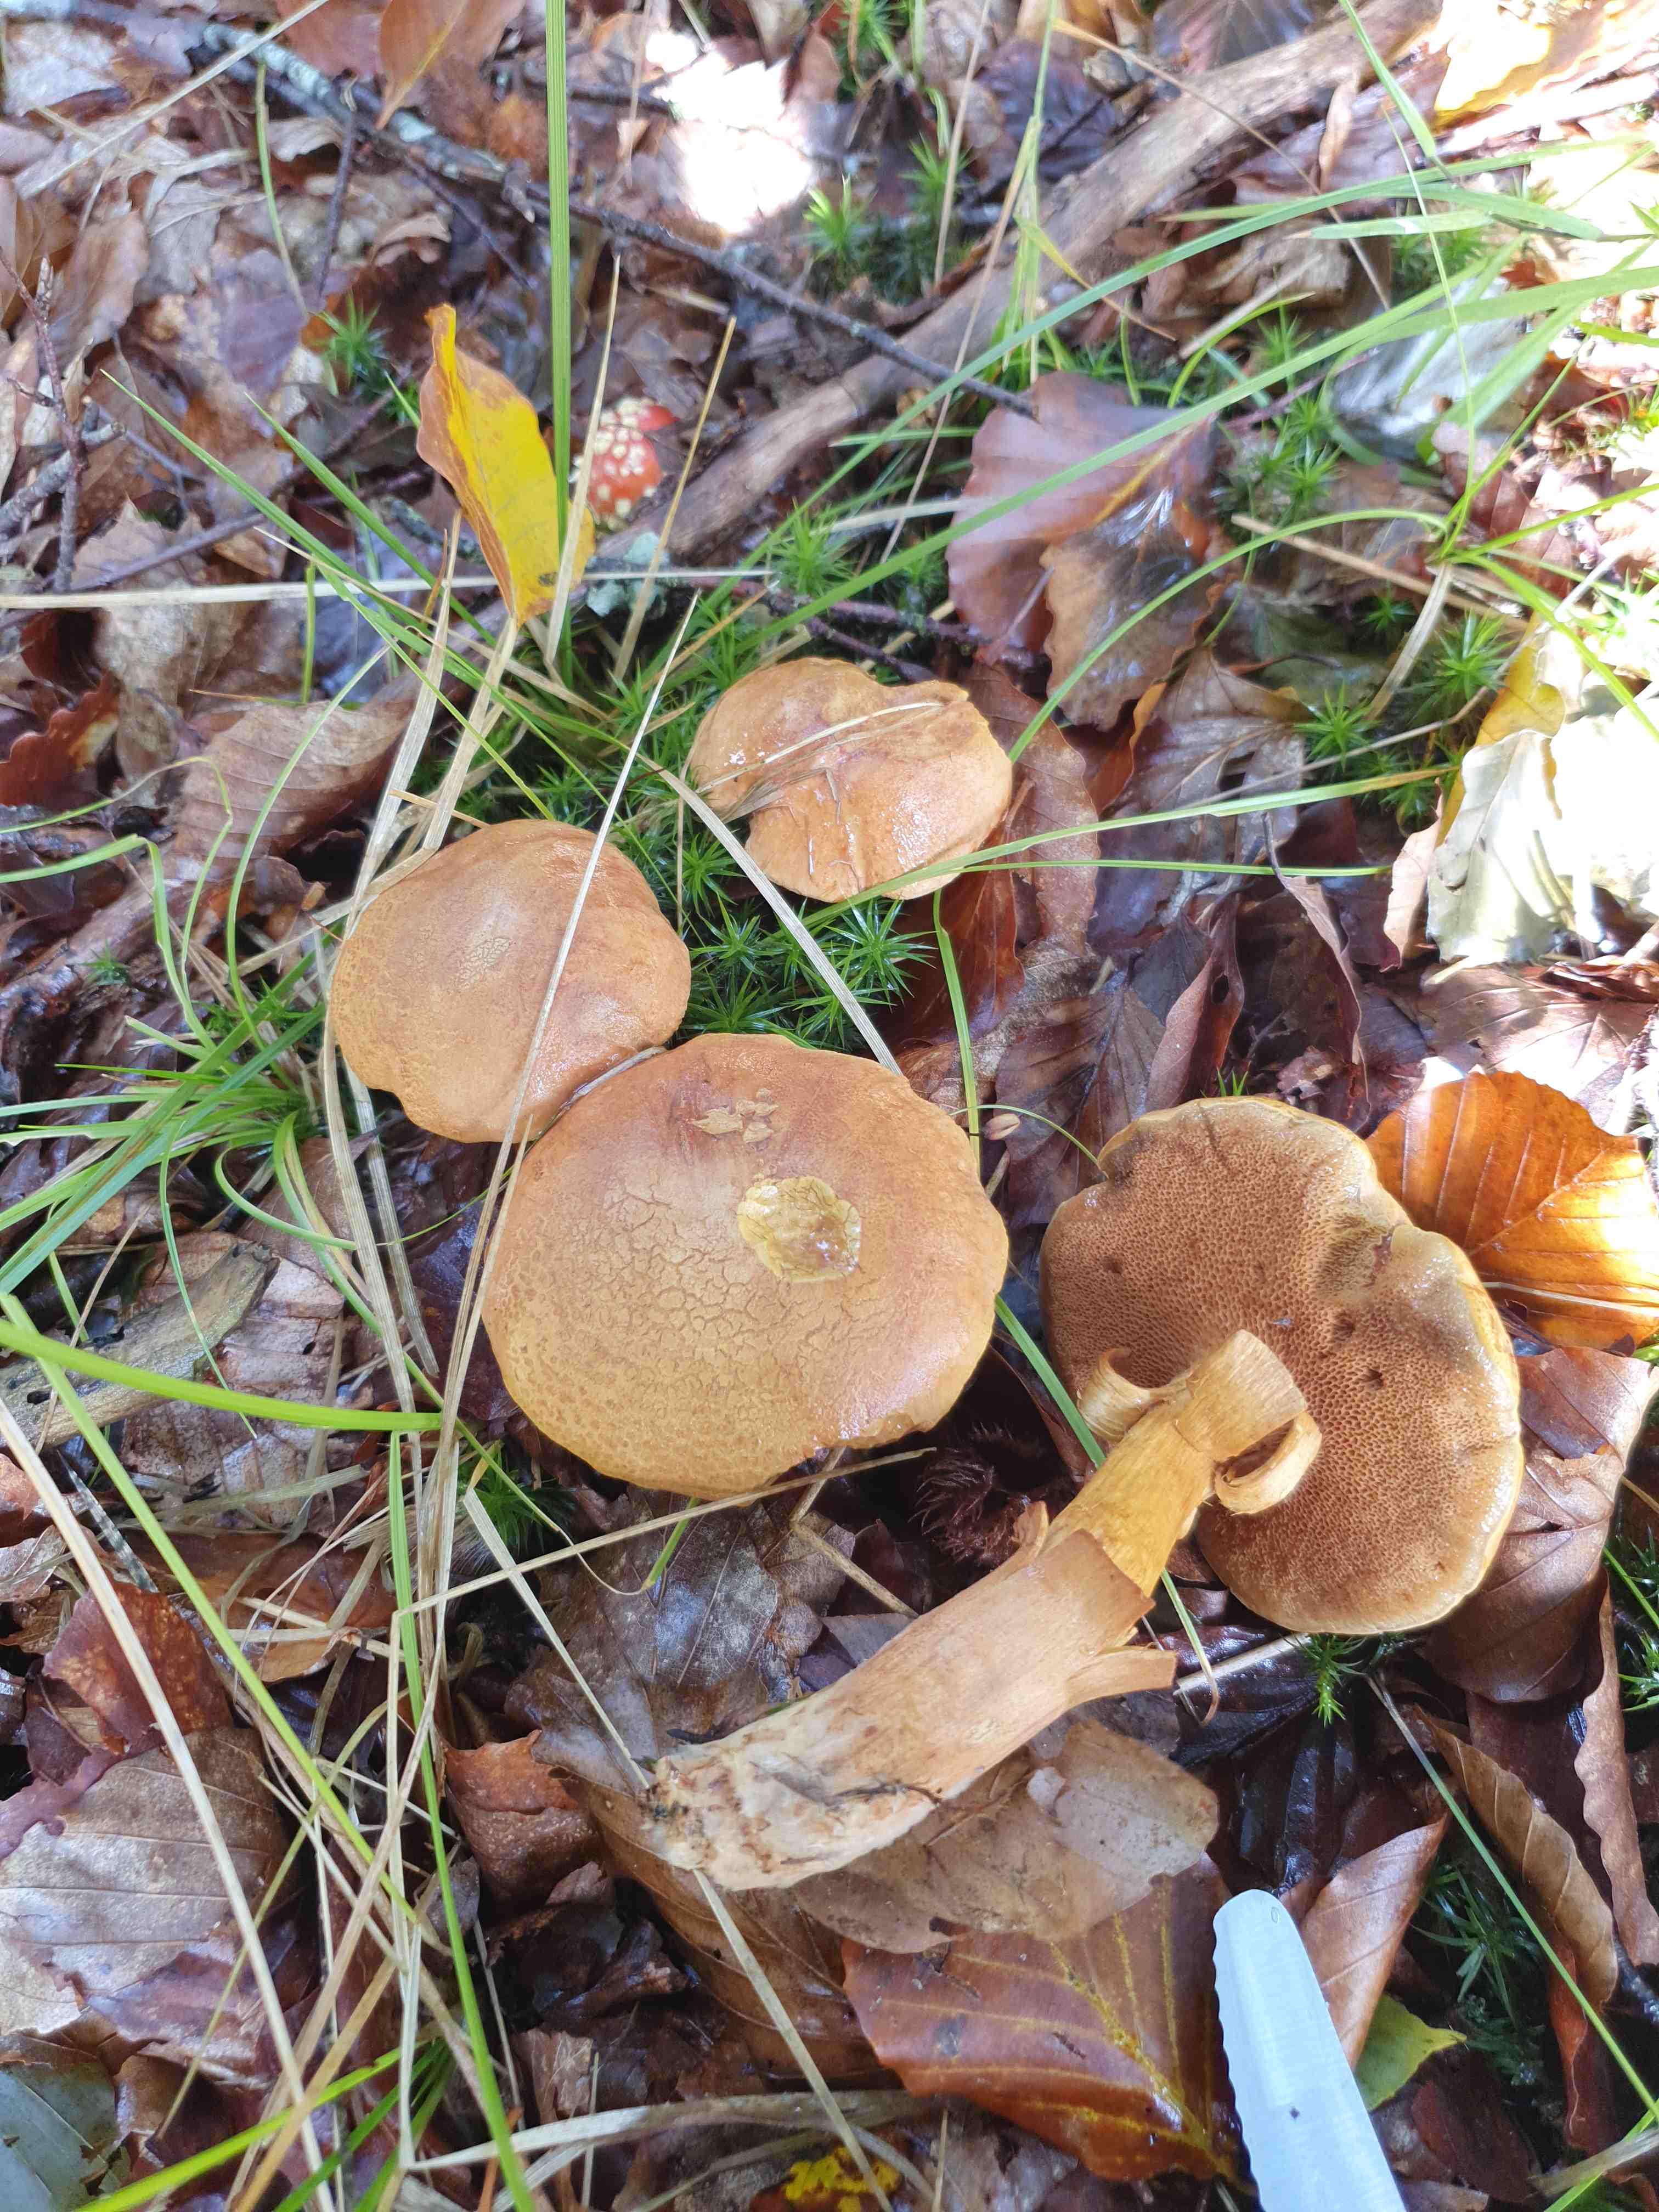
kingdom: Fungi
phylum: Basidiomycota
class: Agaricomycetes
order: Boletales
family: Boletaceae
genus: Chalciporus
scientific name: Chalciporus piperatus
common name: peberrørhat
